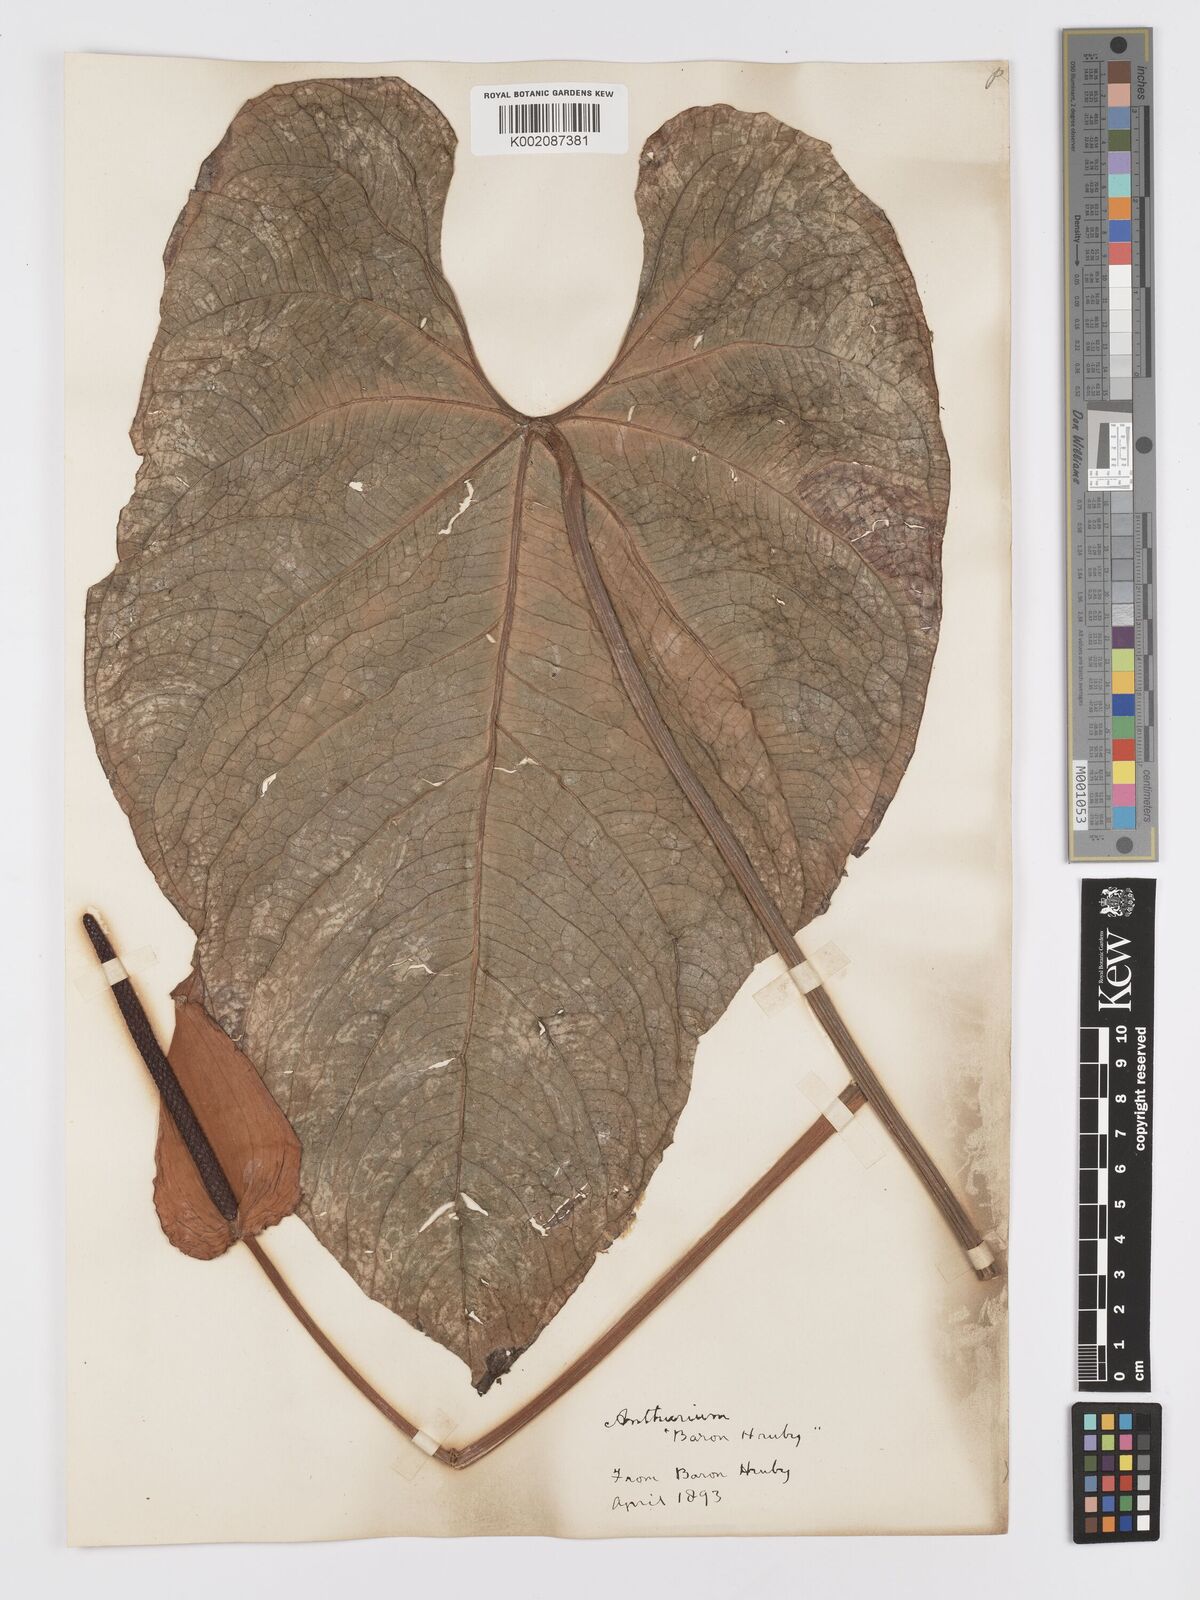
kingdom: Plantae
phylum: Tracheophyta
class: Liliopsida
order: Alismatales
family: Araceae
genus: Anthurium
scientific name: Anthurium
